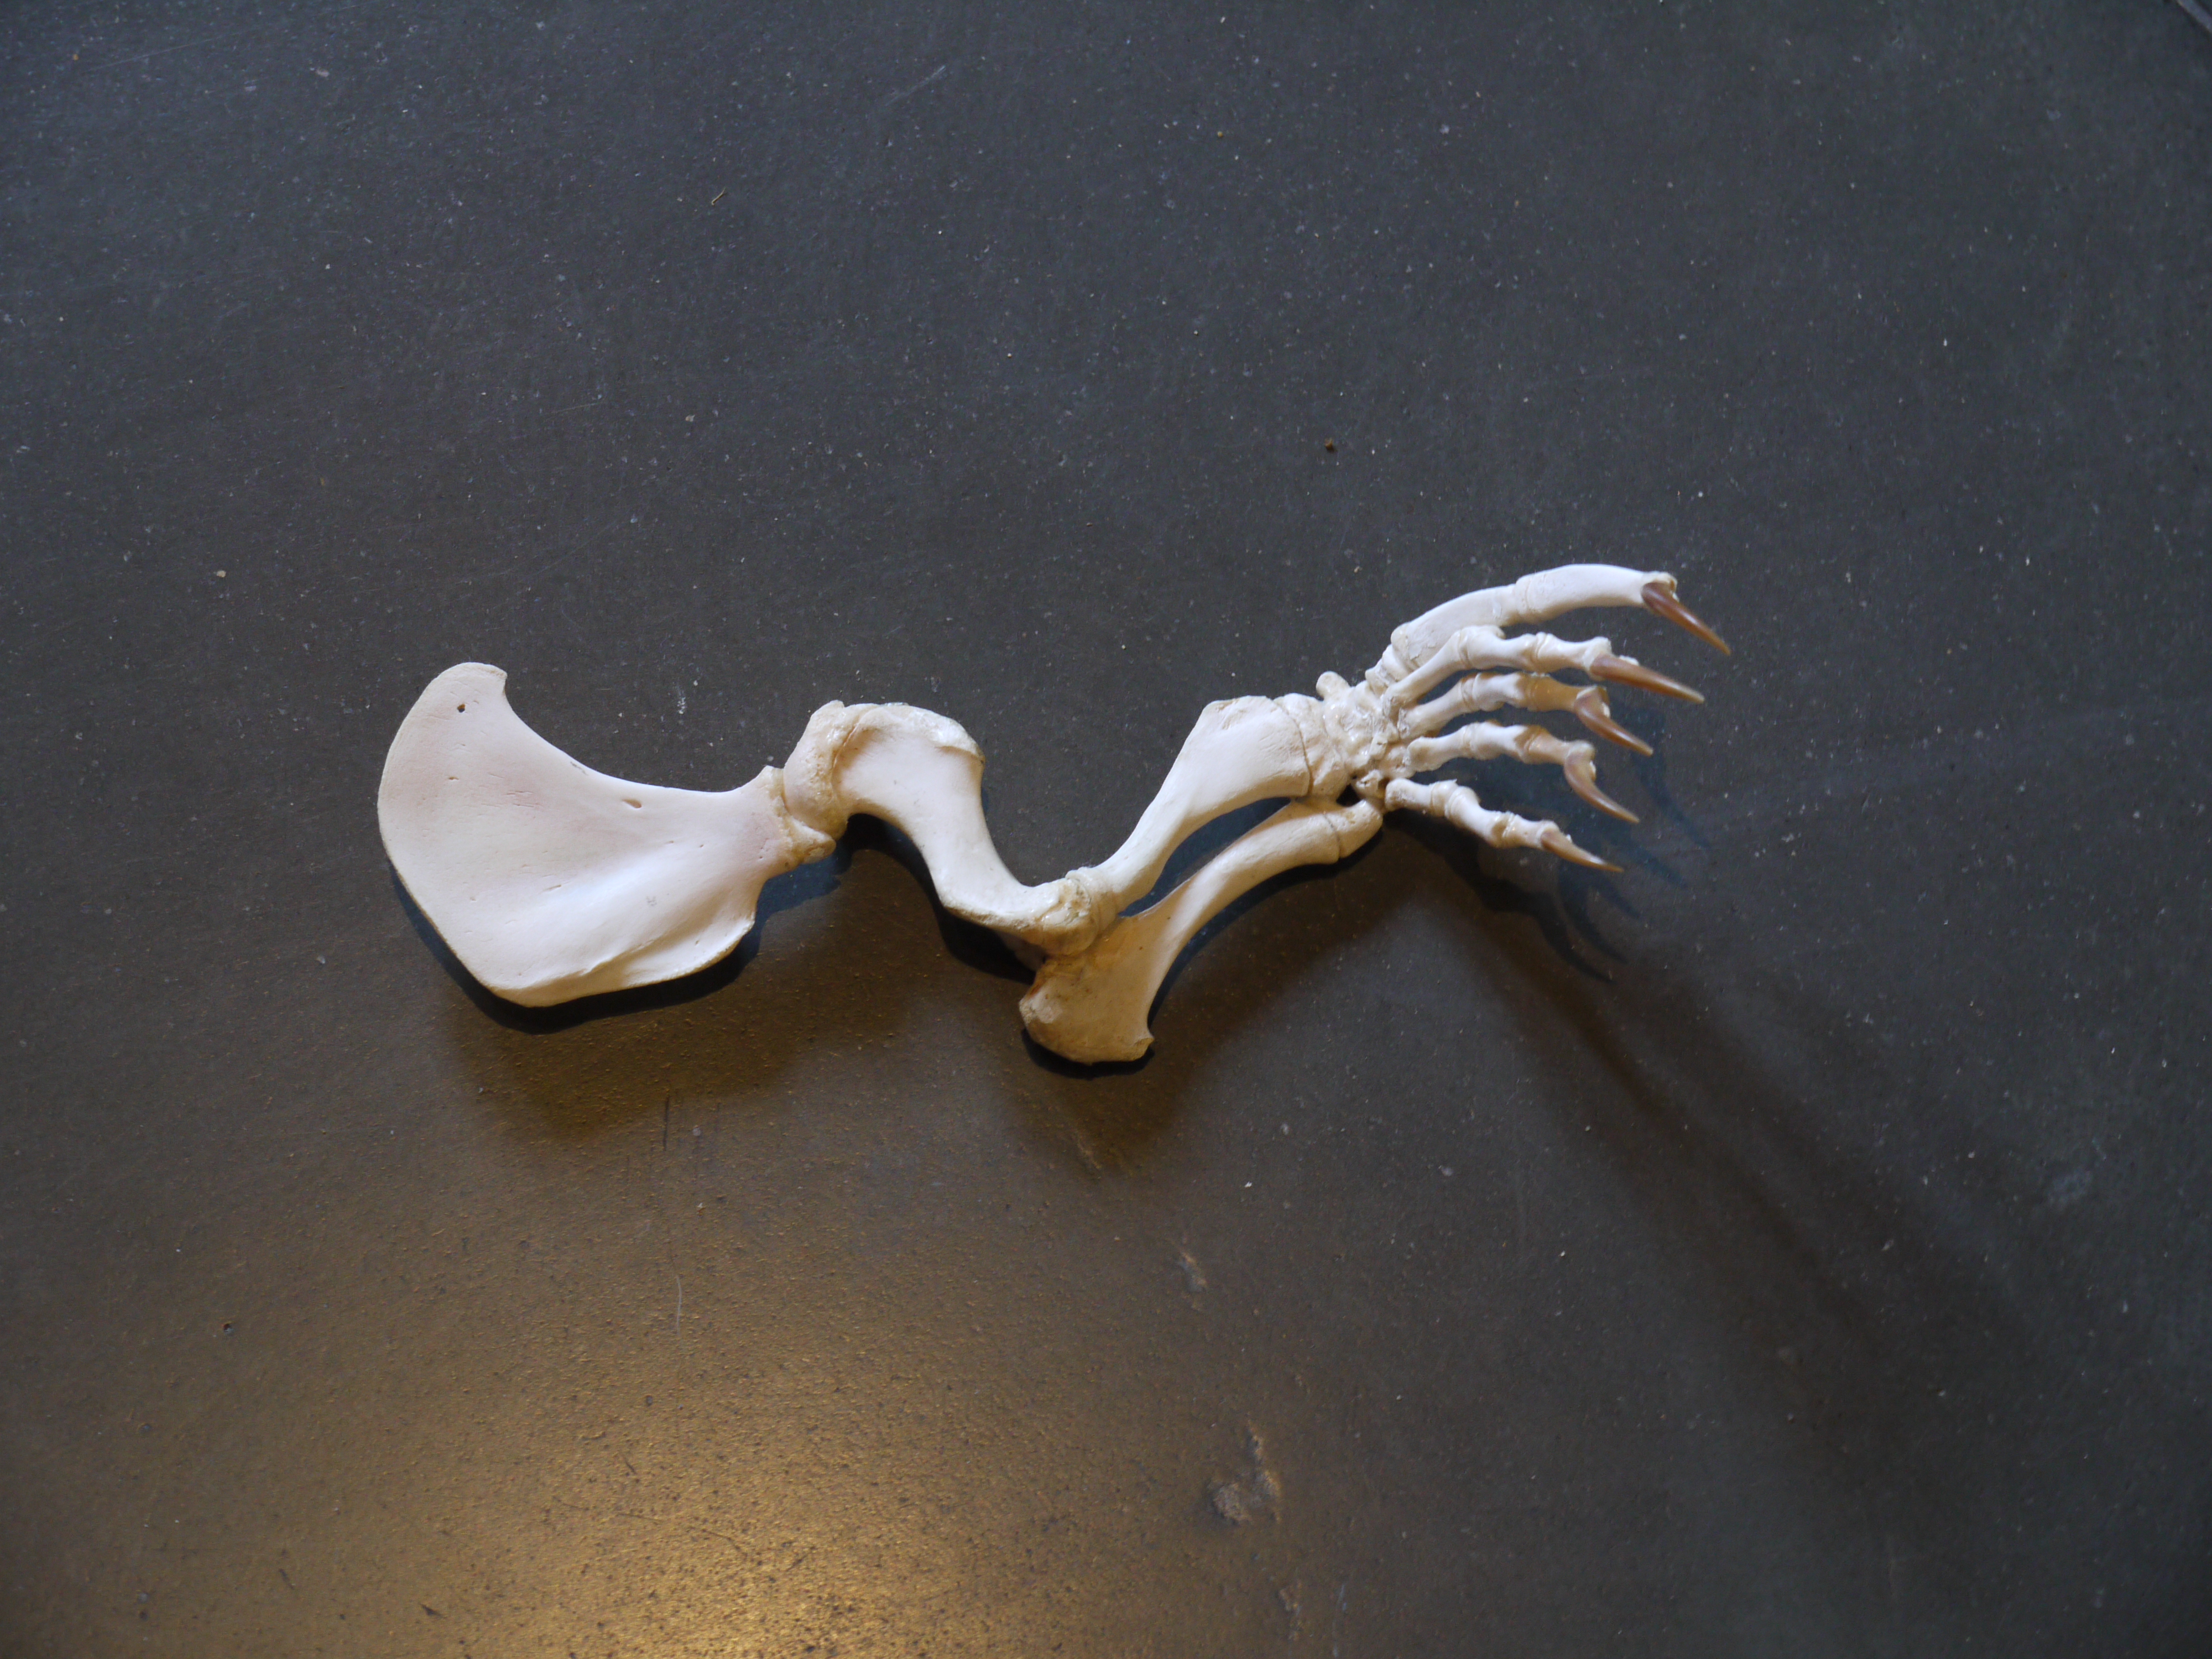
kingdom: Animalia
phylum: Chordata
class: Mammalia
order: Carnivora
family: Phocidae
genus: Phoca
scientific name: Phoca vitulina
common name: Harbor seal
